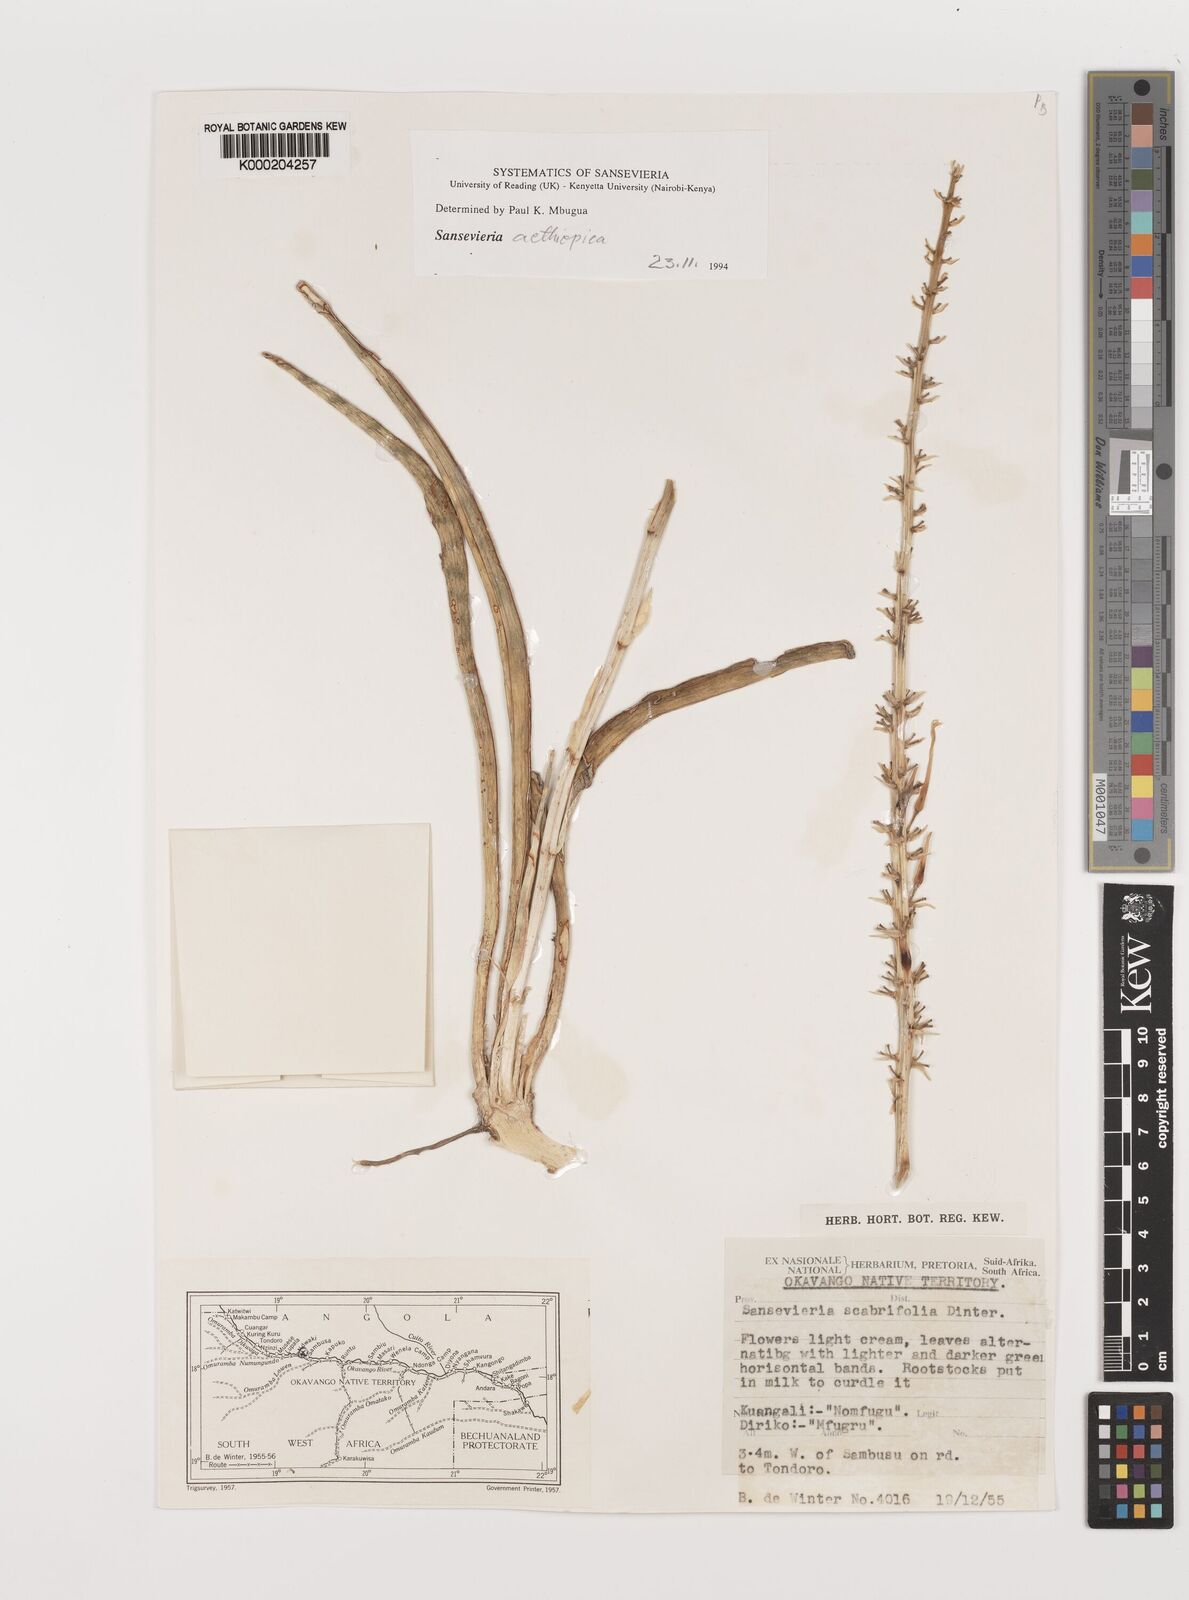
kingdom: Plantae
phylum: Tracheophyta
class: Liliopsida
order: Asparagales
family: Asparagaceae
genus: Dracaena
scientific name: Dracaena aethiopica
